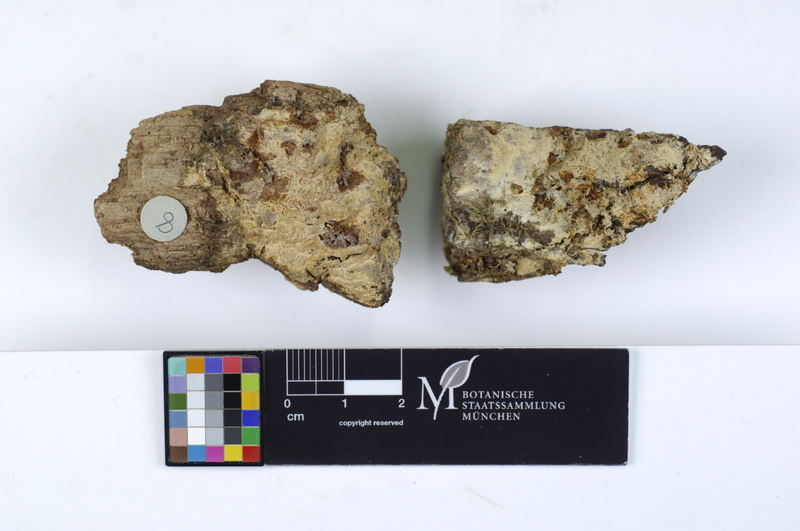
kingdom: Fungi
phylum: Basidiomycota
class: Agaricomycetes
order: Russulales
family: Peniophoraceae
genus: Gloiothele
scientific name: Gloiothele lactescens
